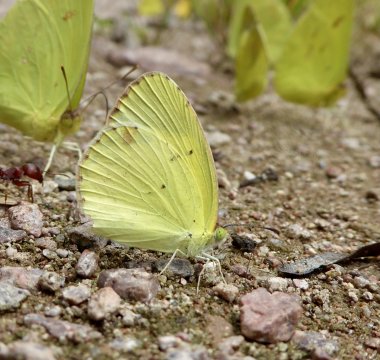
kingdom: Animalia
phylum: Arthropoda
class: Insecta
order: Lepidoptera
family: Pieridae
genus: Pyrisitia
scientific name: Pyrisitia lisa
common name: Little Yellow
